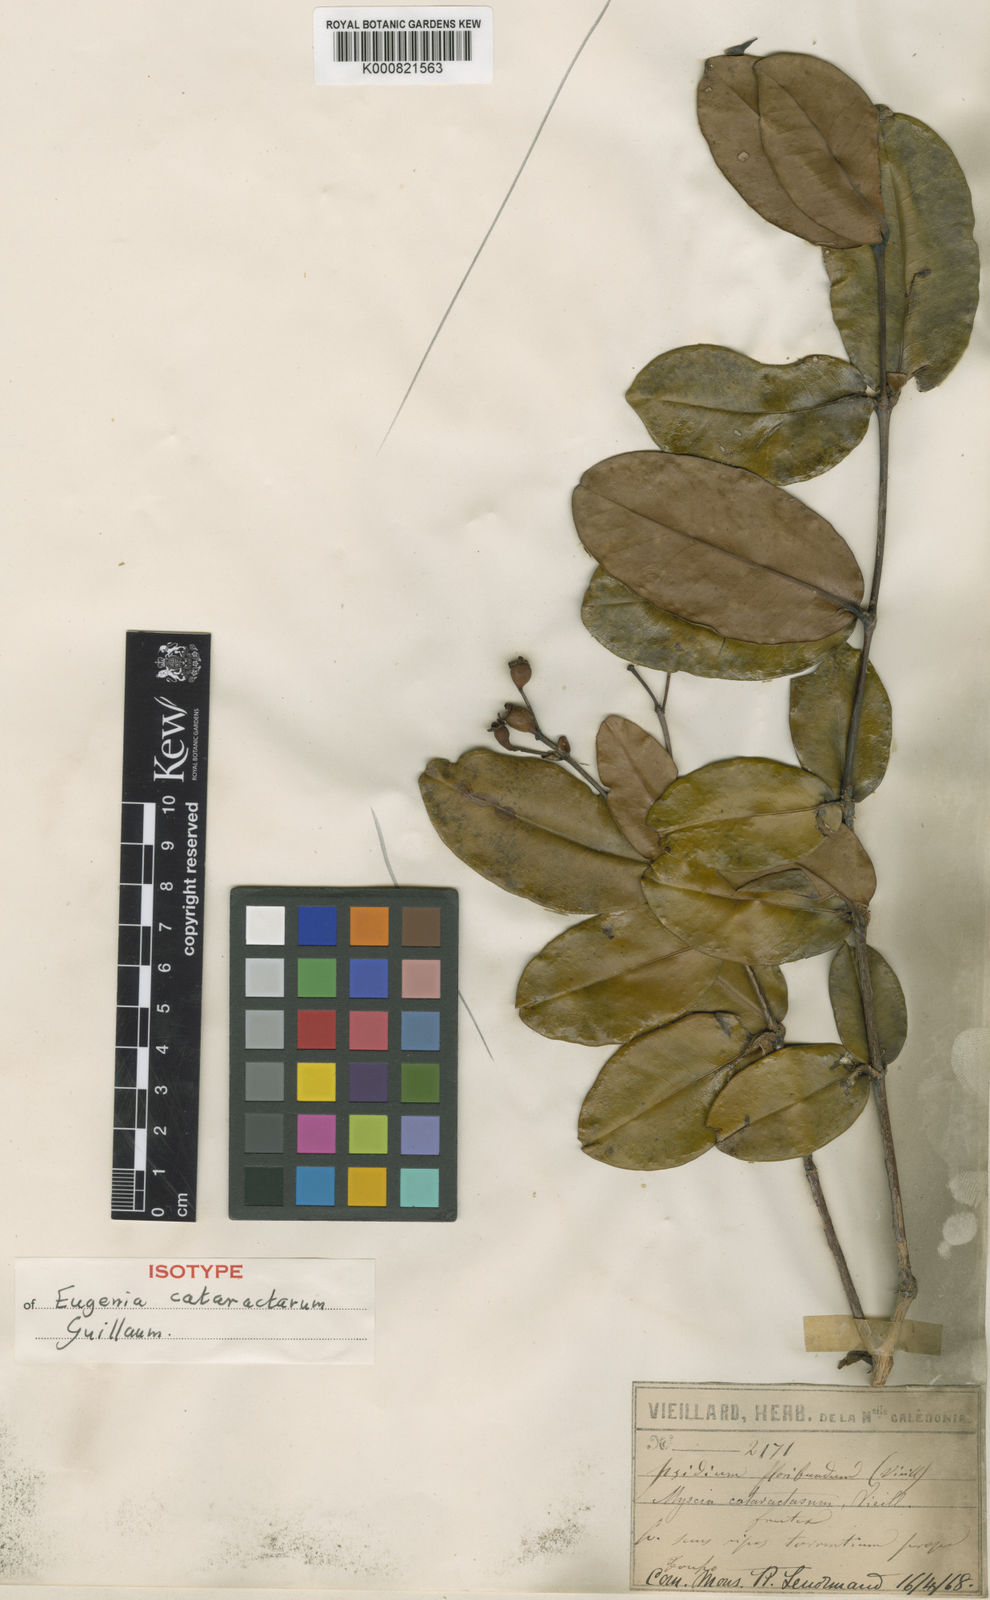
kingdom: Plantae
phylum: Tracheophyta
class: Magnoliopsida
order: Myrtales
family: Myrtaceae
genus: Gossia
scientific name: Gossia kuakuensis
